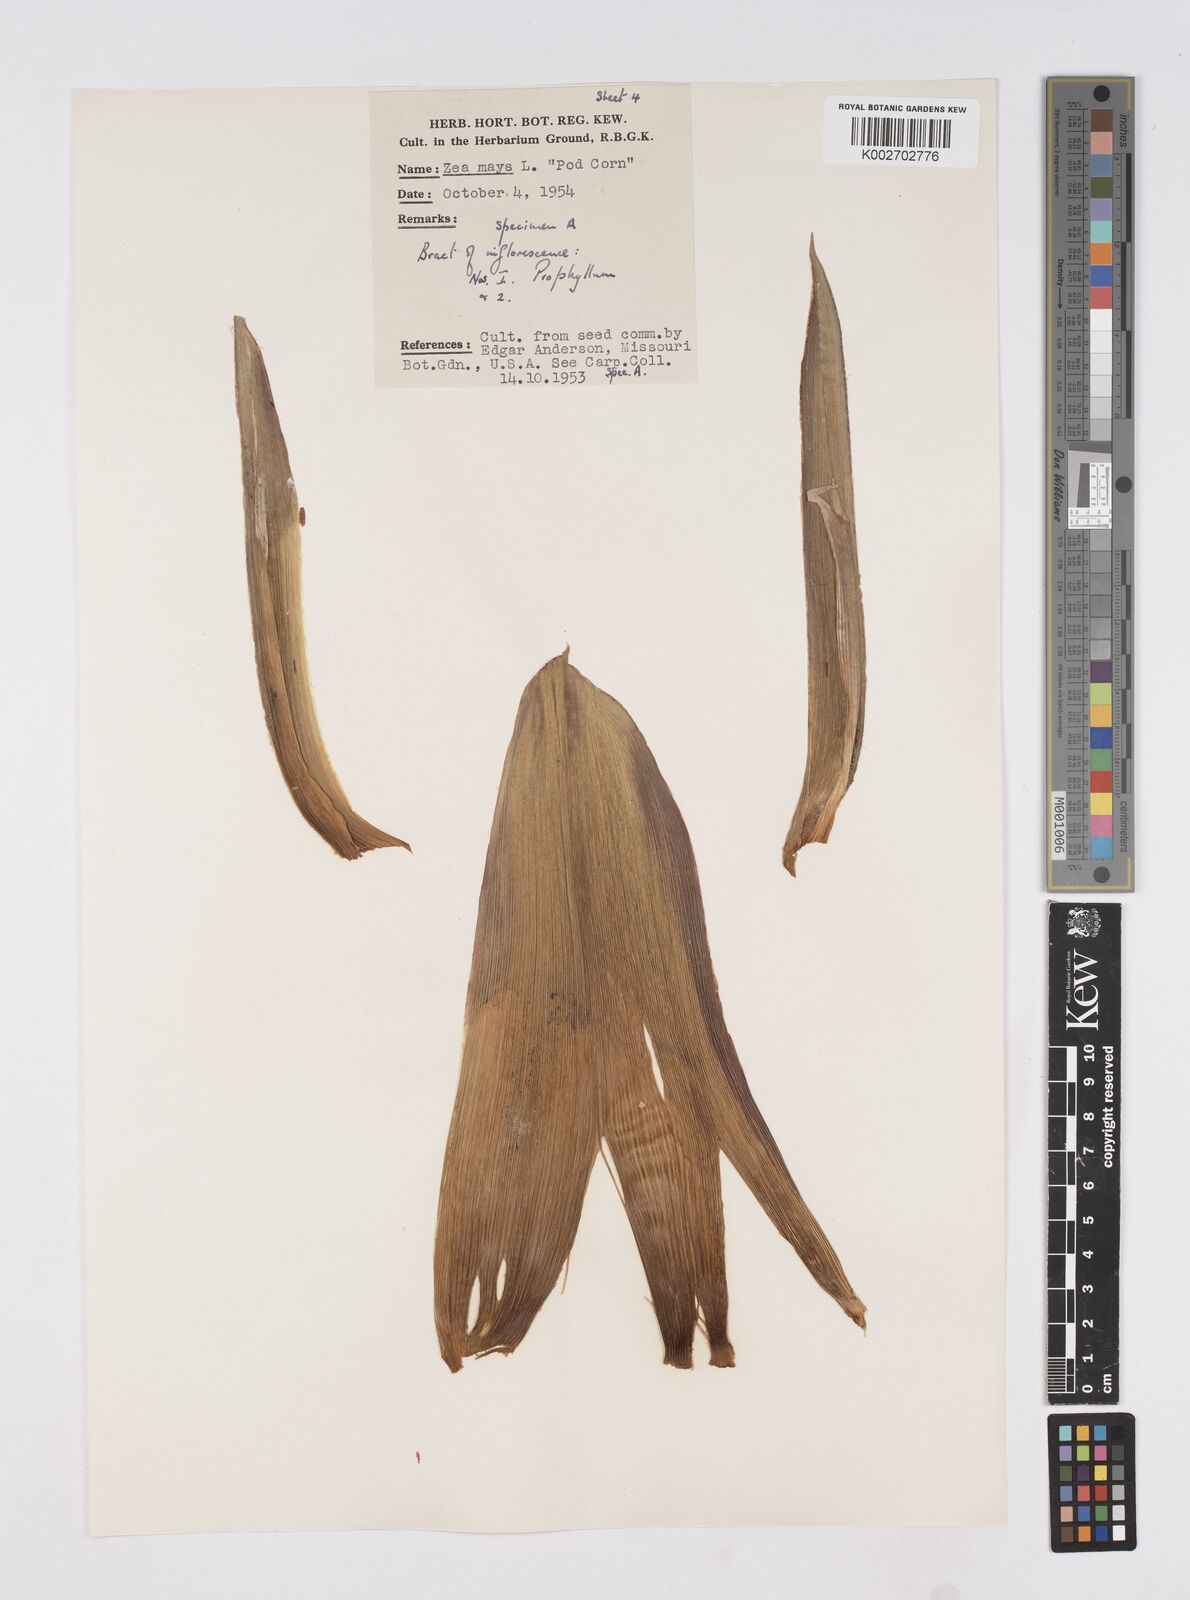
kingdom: Plantae
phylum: Tracheophyta
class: Liliopsida
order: Poales
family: Poaceae
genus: Zea
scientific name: Zea mays
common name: Maize
